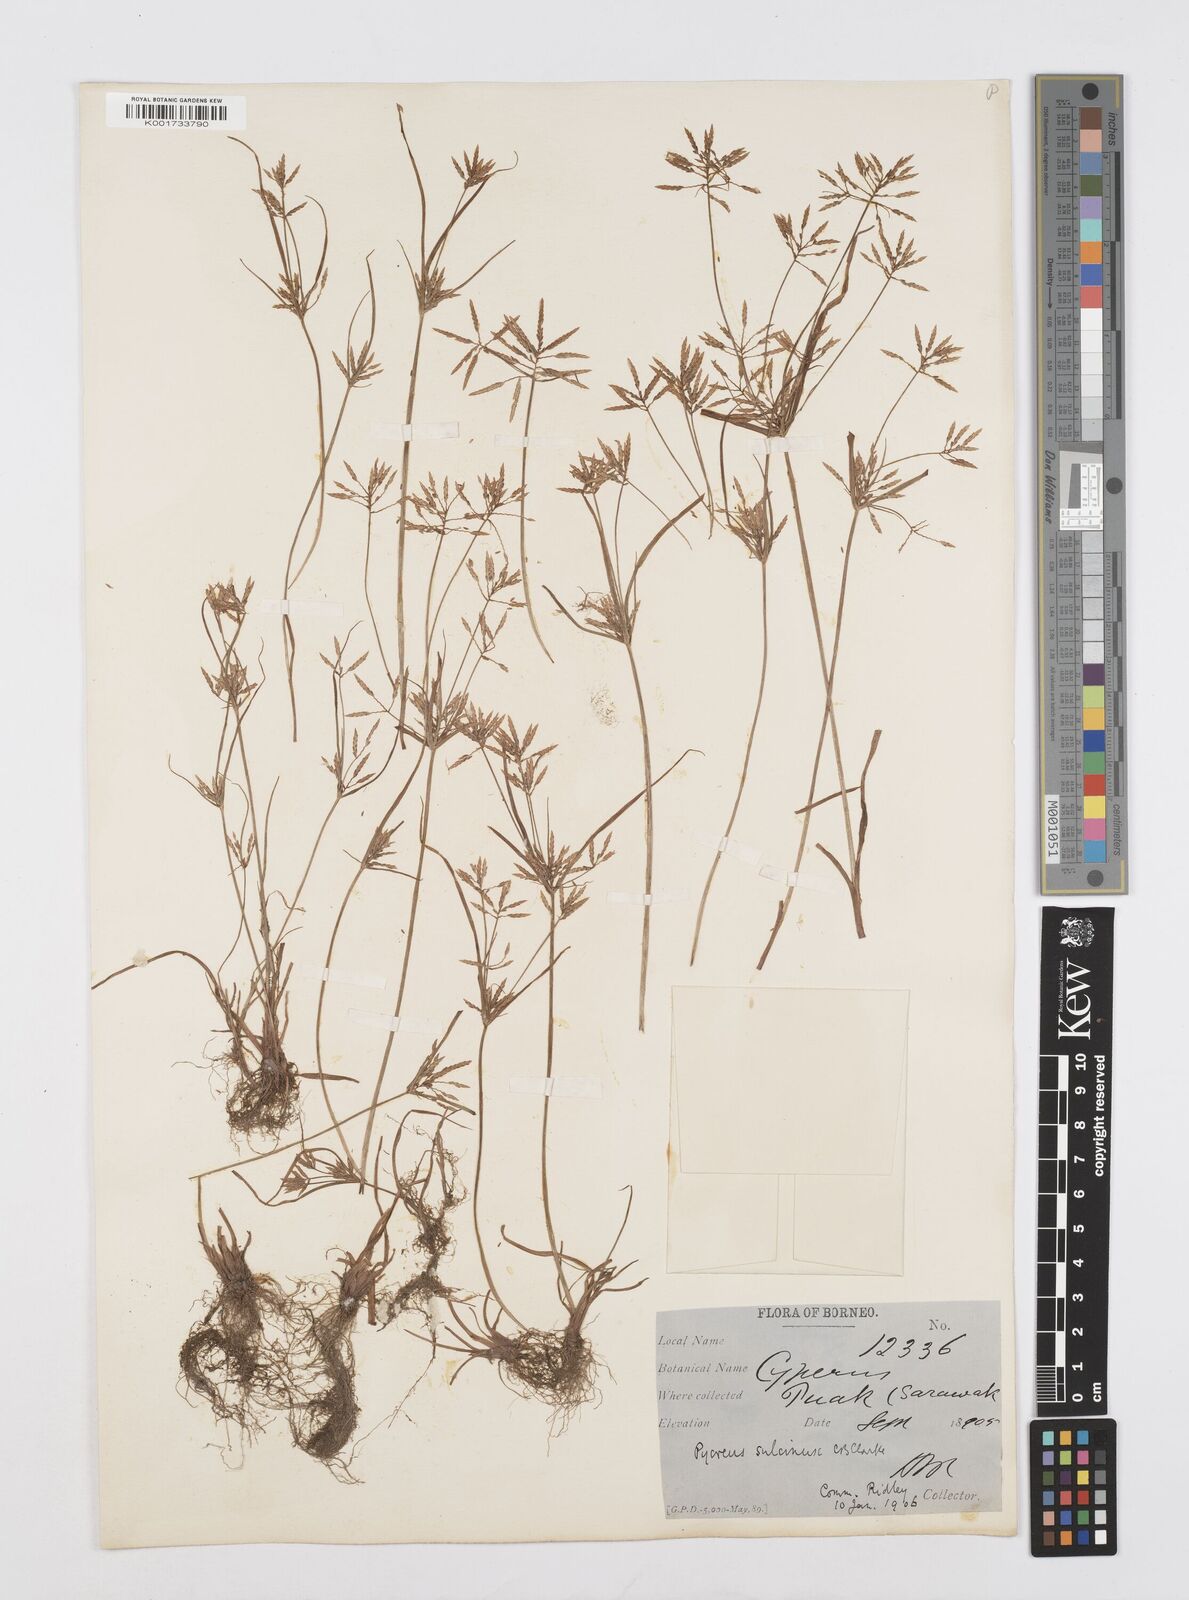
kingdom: Plantae
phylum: Tracheophyta
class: Liliopsida
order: Poales
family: Cyperaceae
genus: Cyperus
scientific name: Cyperus sulcinux
